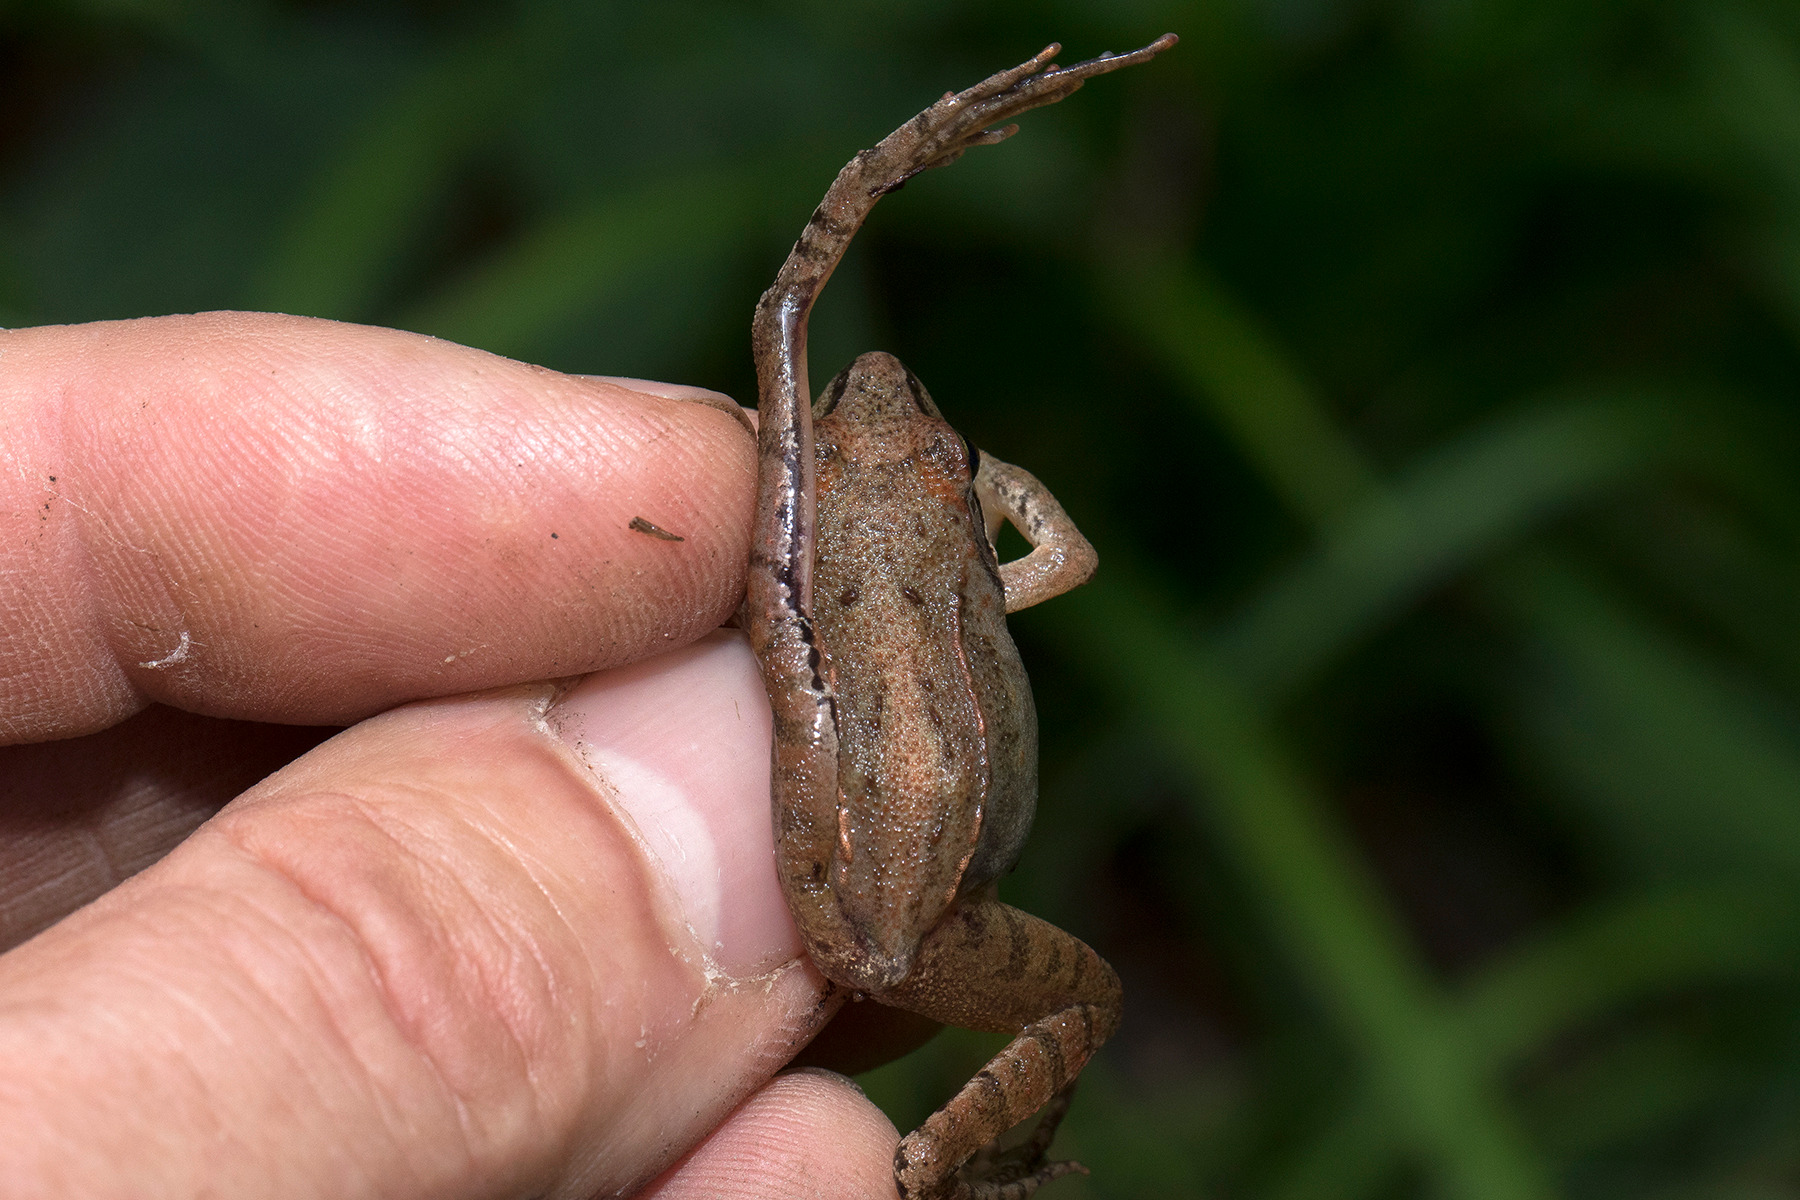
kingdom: Animalia
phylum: Chordata
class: Amphibia
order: Anura
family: Ranidae
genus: Rana
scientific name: Rana dalmatina
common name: Springfrø
